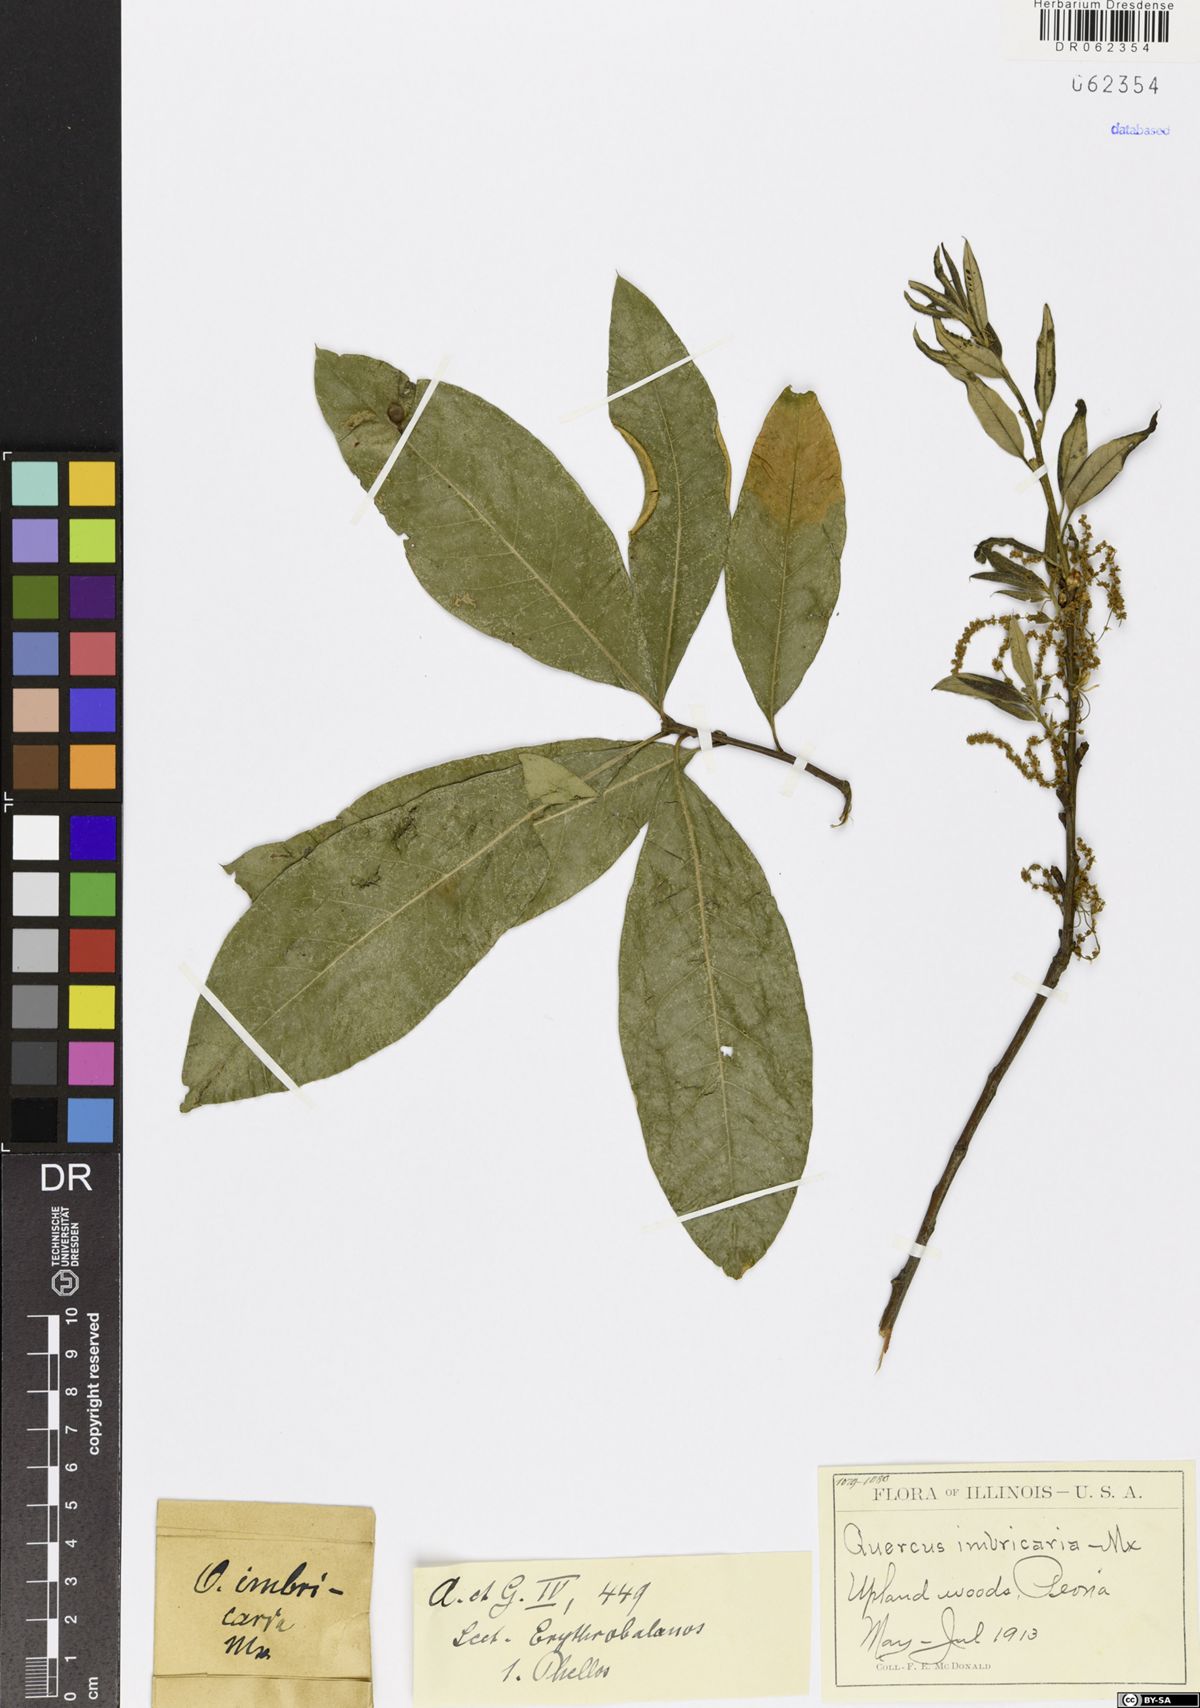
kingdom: Plantae
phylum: Tracheophyta
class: Magnoliopsida
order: Fagales
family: Fagaceae
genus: Quercus
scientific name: Quercus imbricaria
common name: Shingle oak
